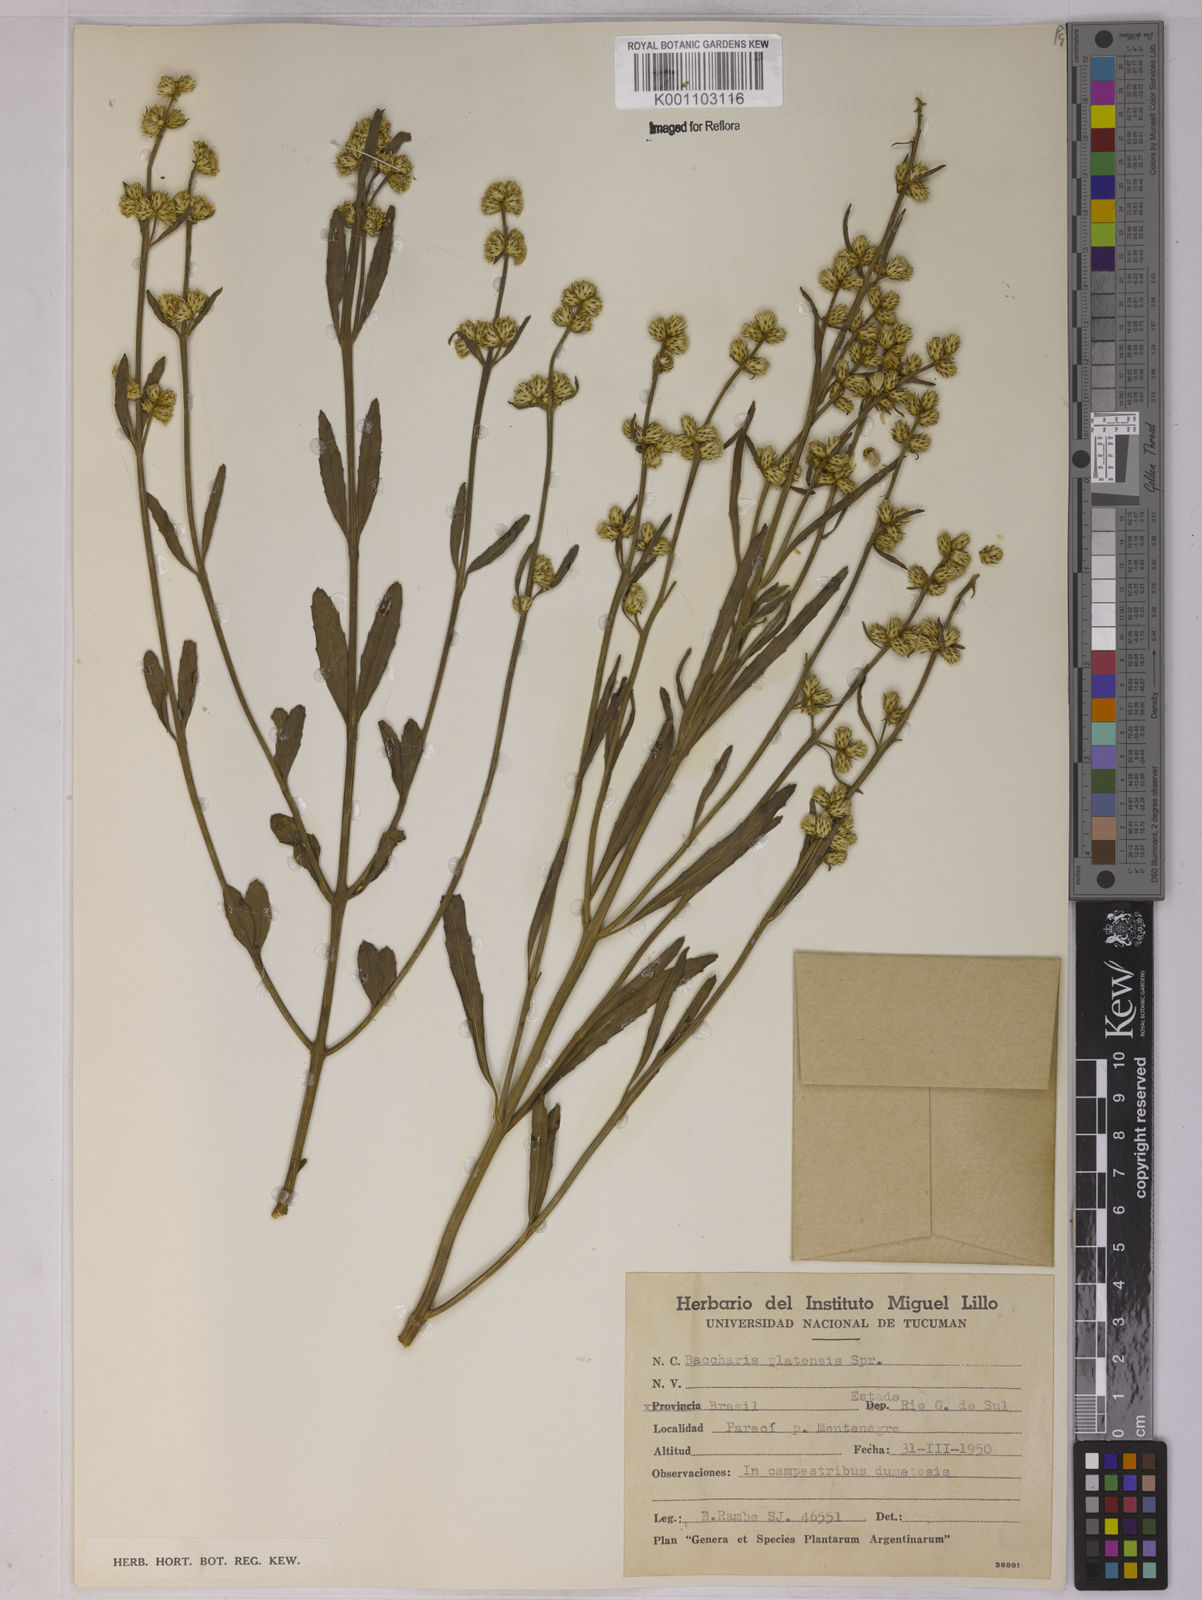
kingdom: Plantae
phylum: Tracheophyta
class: Magnoliopsida
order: Asterales
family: Asteraceae
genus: Baccharis
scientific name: Baccharis spicata
